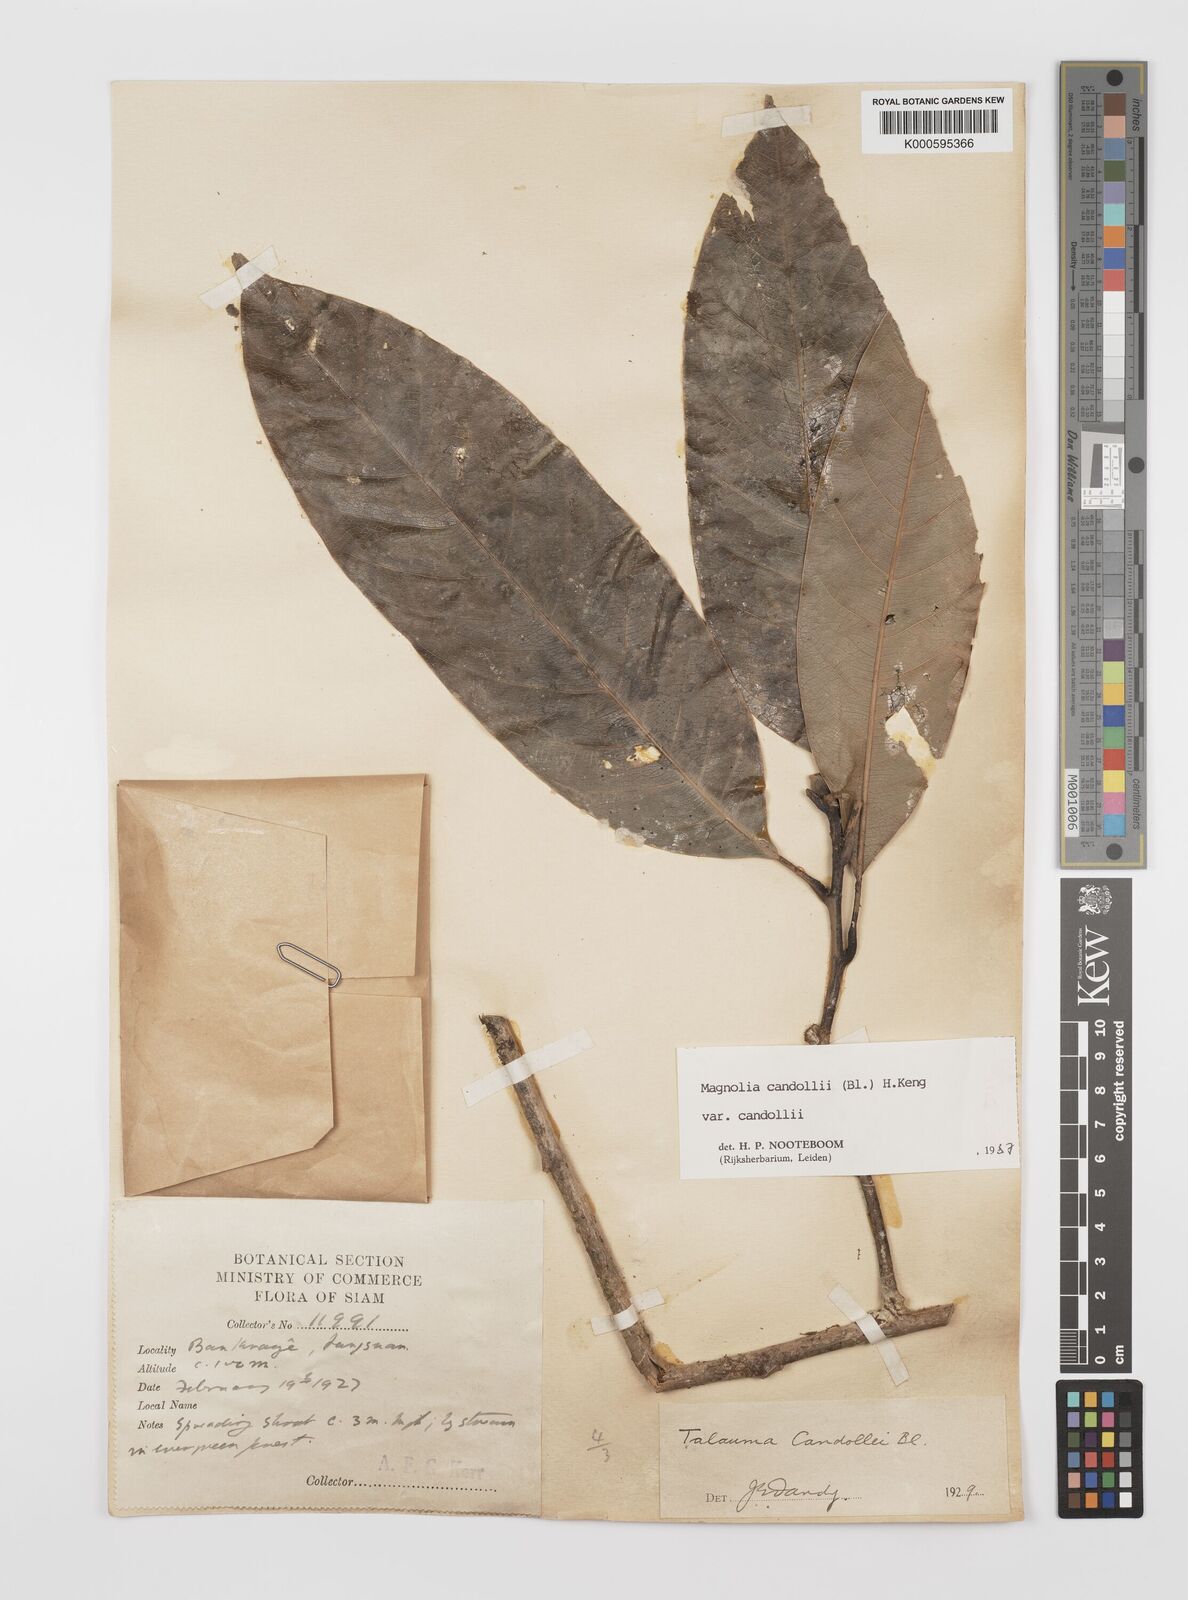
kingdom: Plantae
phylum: Tracheophyta
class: Magnoliopsida
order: Magnoliales
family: Magnoliaceae
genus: Magnolia
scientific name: Magnolia liliifera
